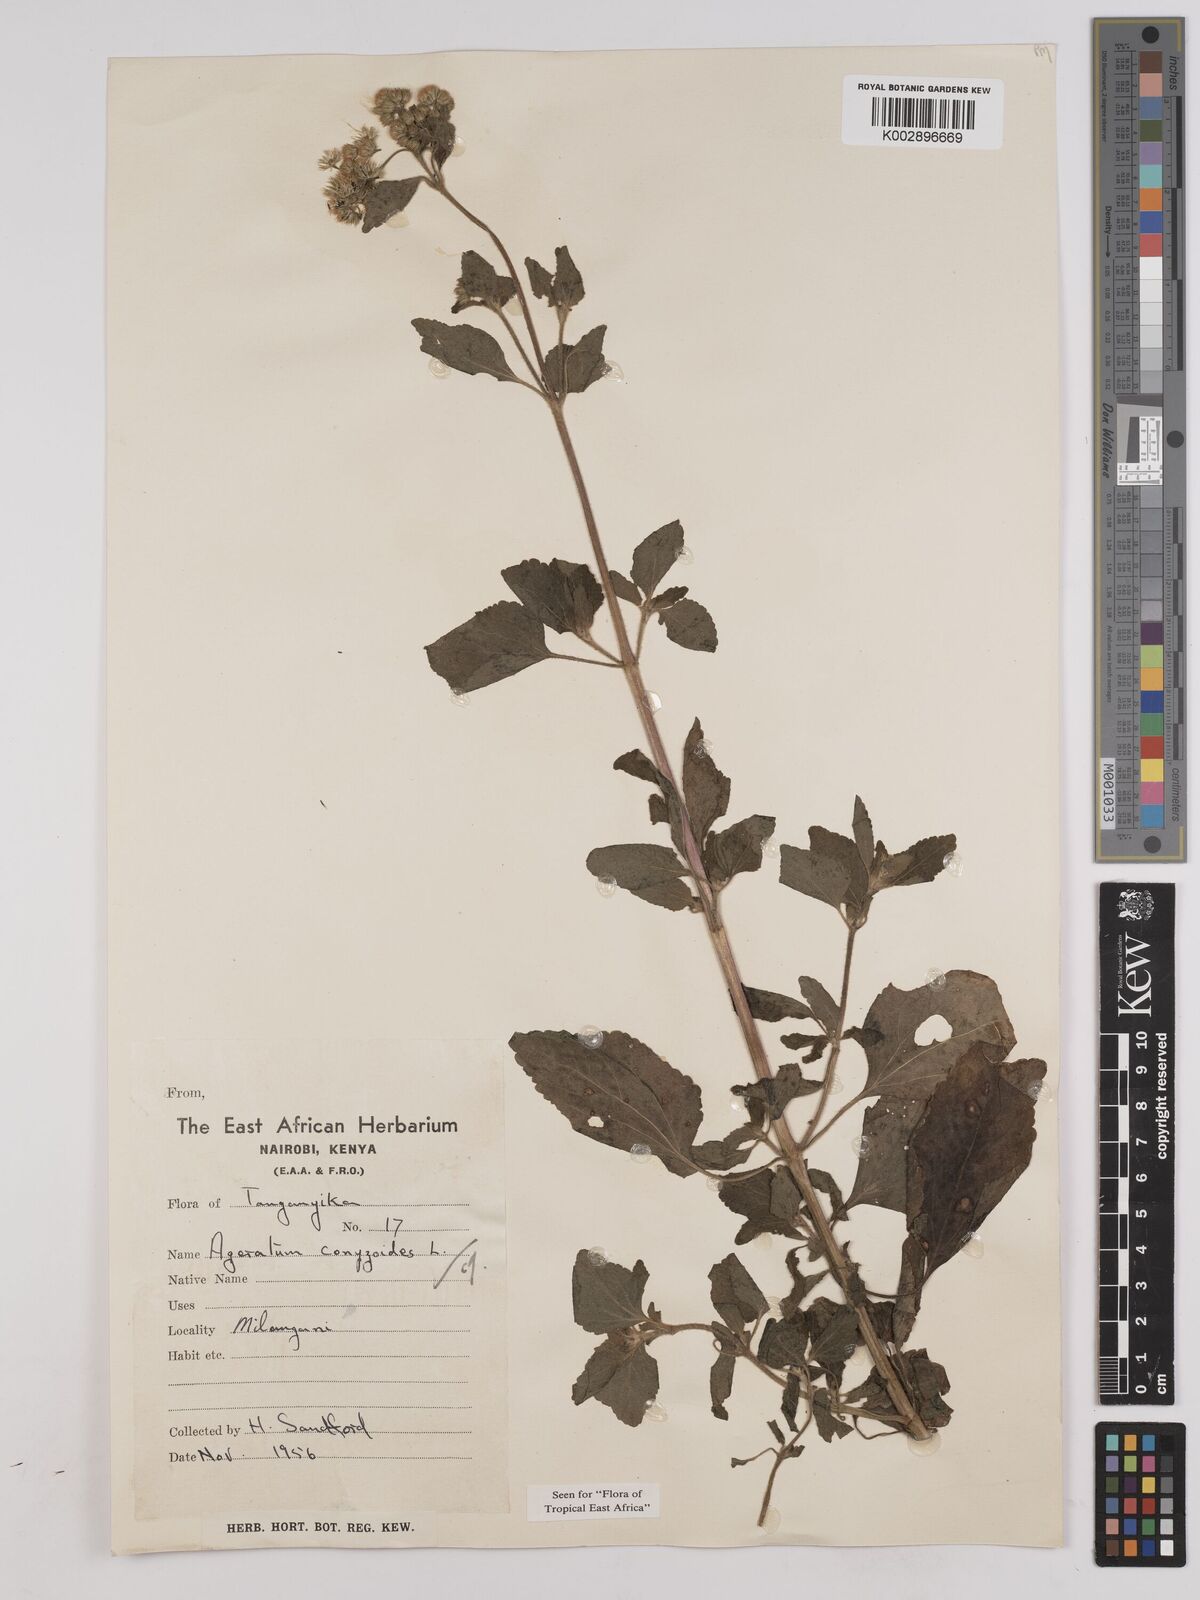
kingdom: Plantae
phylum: Tracheophyta
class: Magnoliopsida
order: Asterales
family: Asteraceae
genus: Ageratum
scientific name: Ageratum conyzoides
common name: Tropical whiteweed
